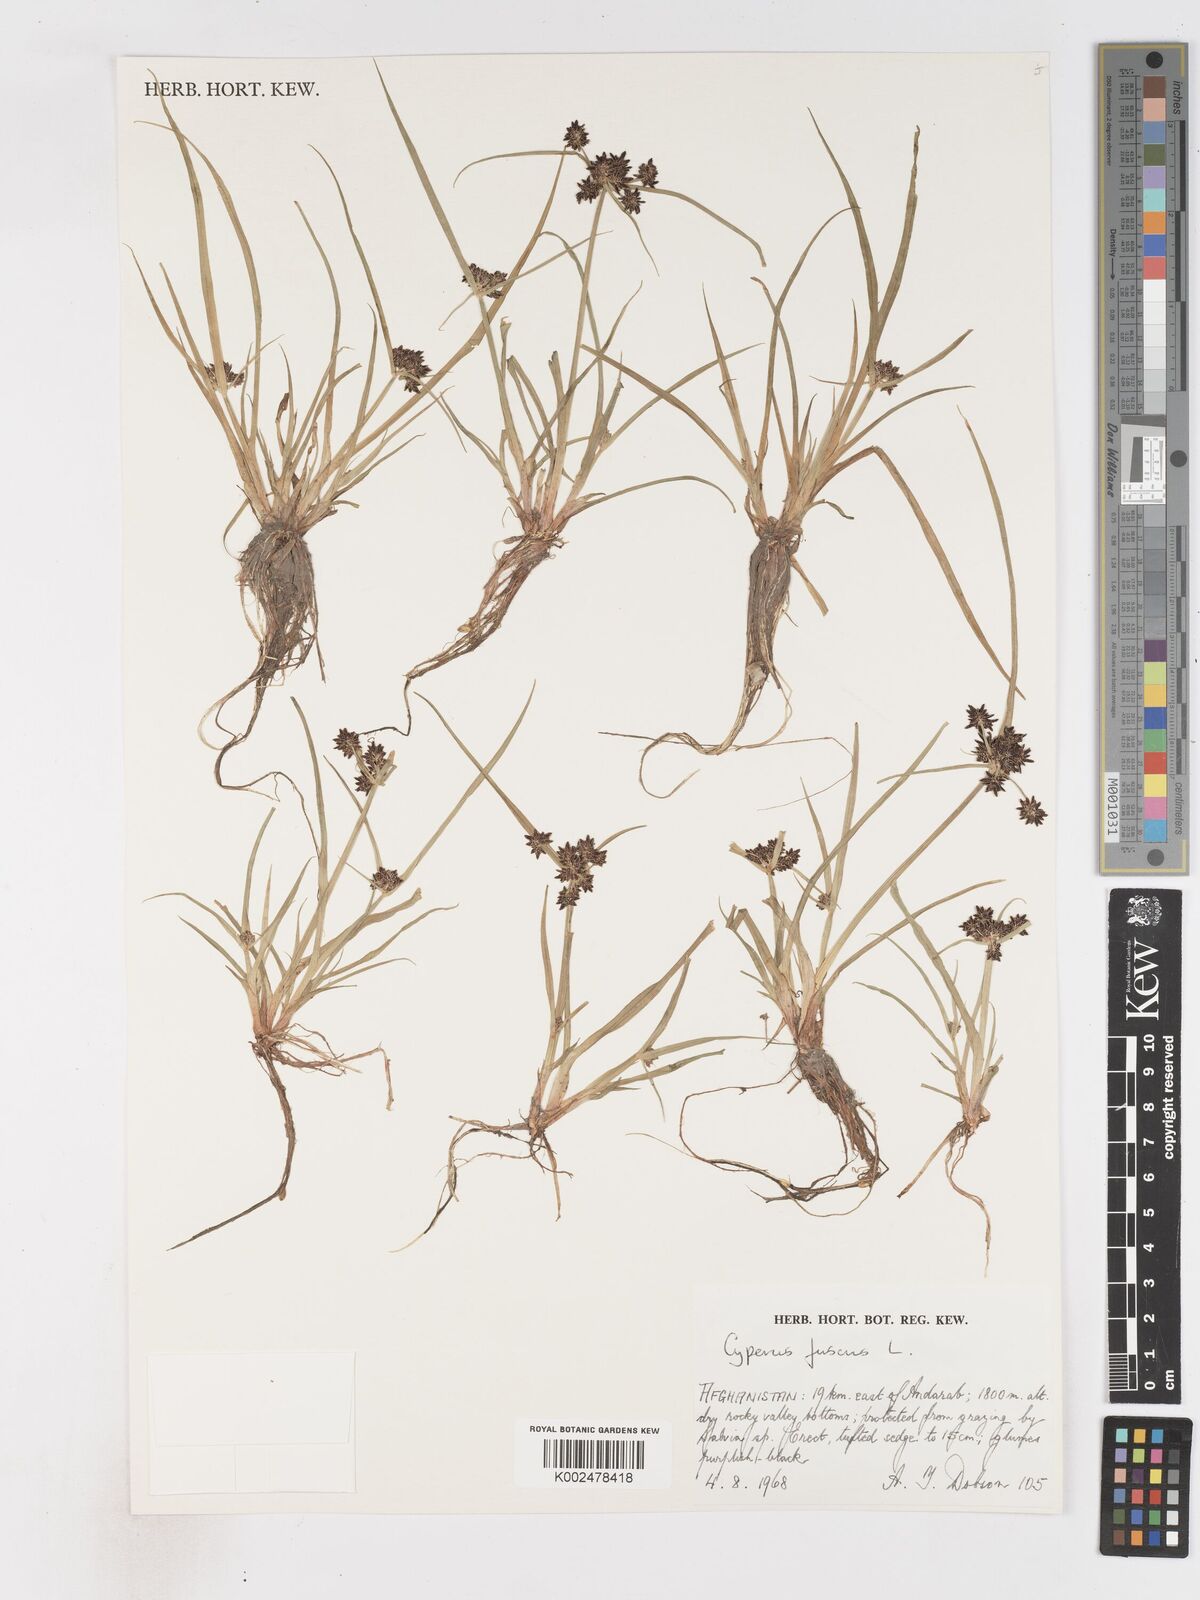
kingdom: Plantae
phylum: Tracheophyta
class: Liliopsida
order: Poales
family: Cyperaceae
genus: Cyperus
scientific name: Cyperus fuscus
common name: Brown galingale
